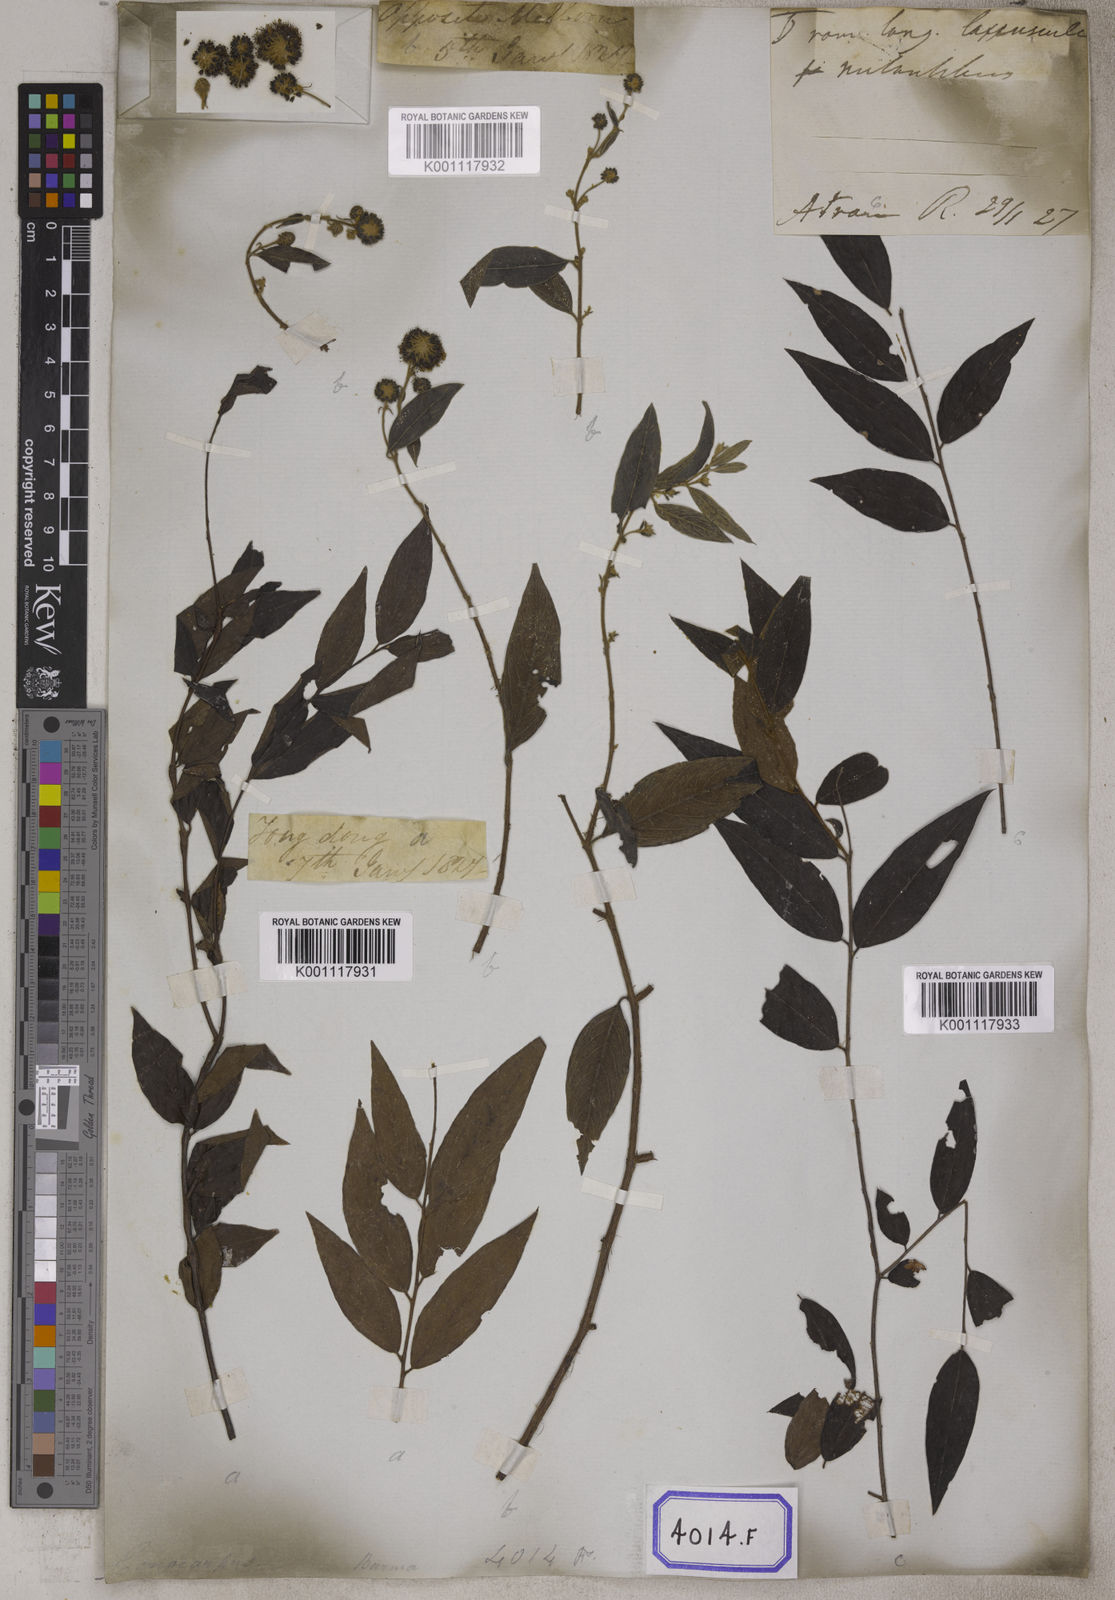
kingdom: Plantae
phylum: Tracheophyta
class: Magnoliopsida
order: Myrtales
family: Combretaceae
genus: Anogeissus
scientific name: Anogeissus
